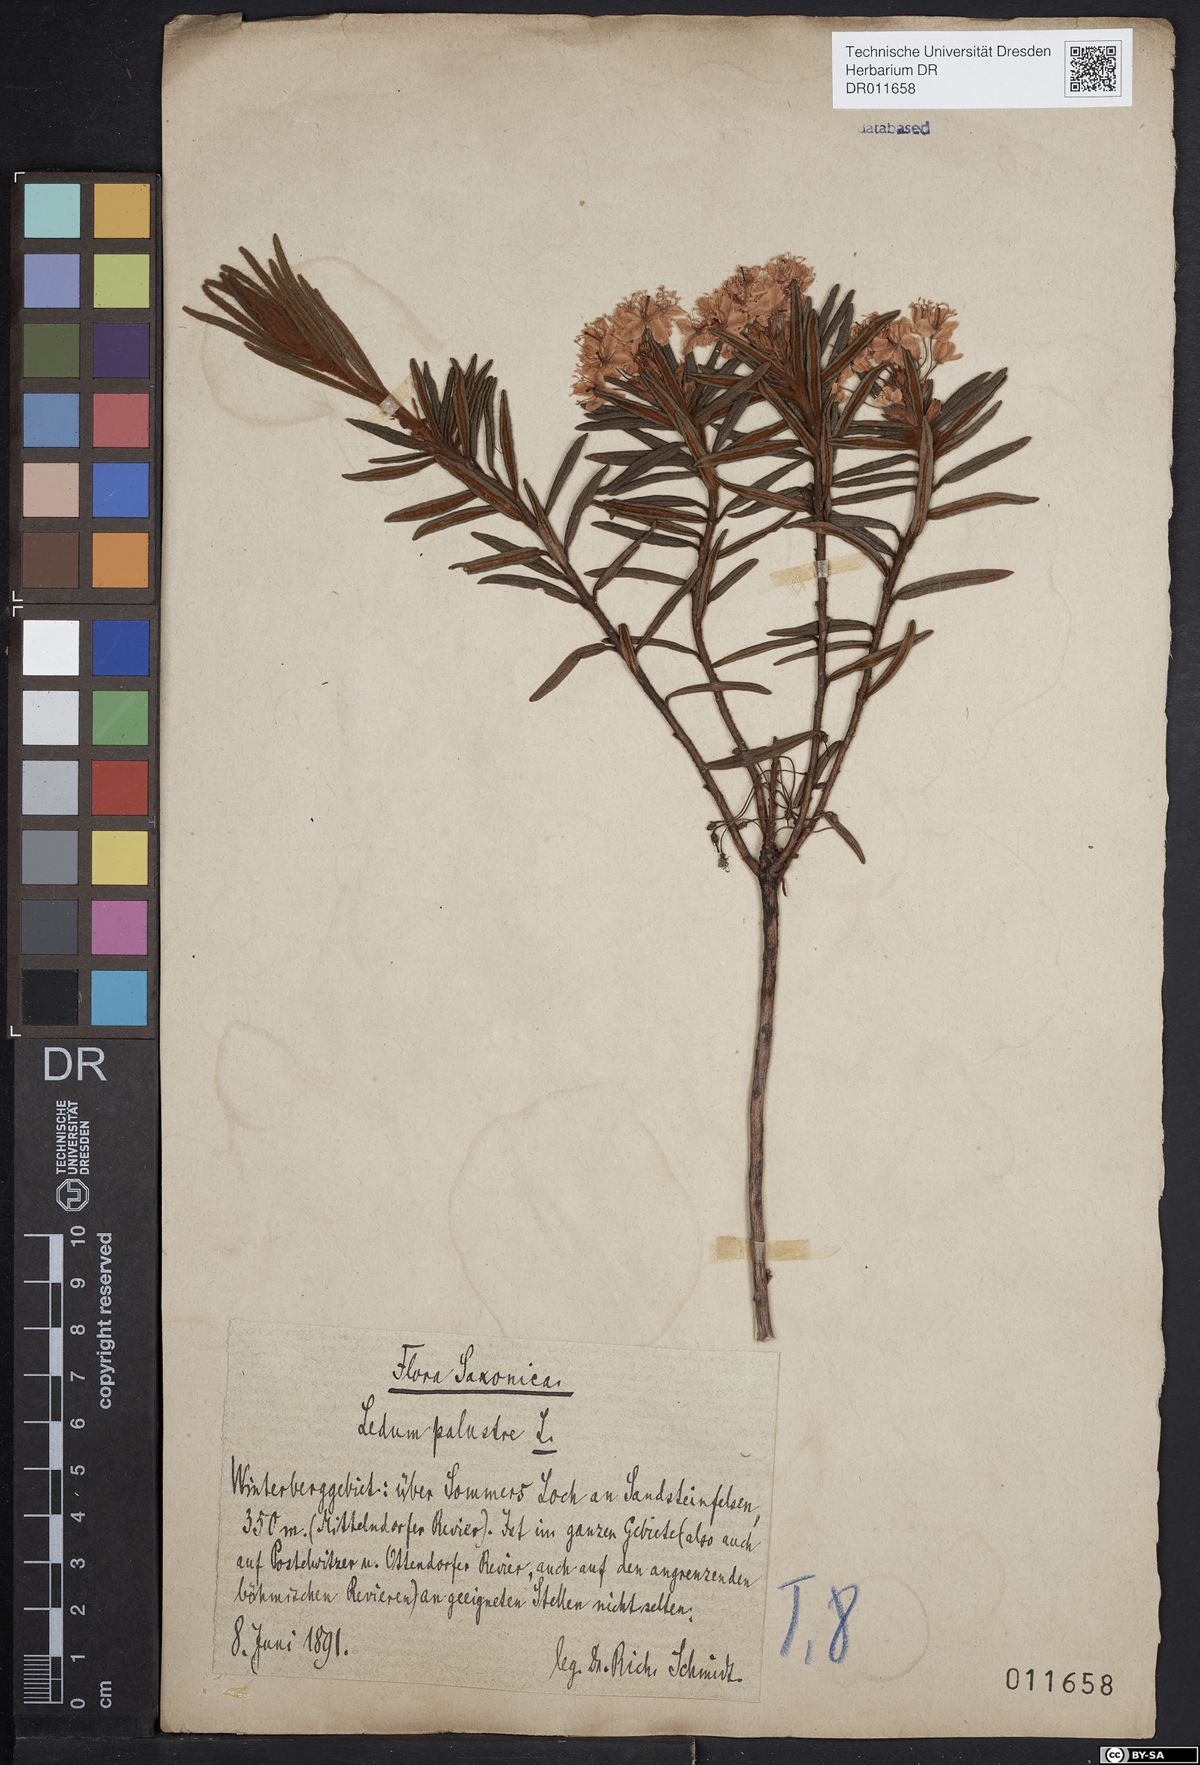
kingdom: Plantae
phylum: Tracheophyta
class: Magnoliopsida
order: Ericales
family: Ericaceae
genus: Rhododendron
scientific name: Rhododendron tomentosum
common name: Marsh labrador tea
